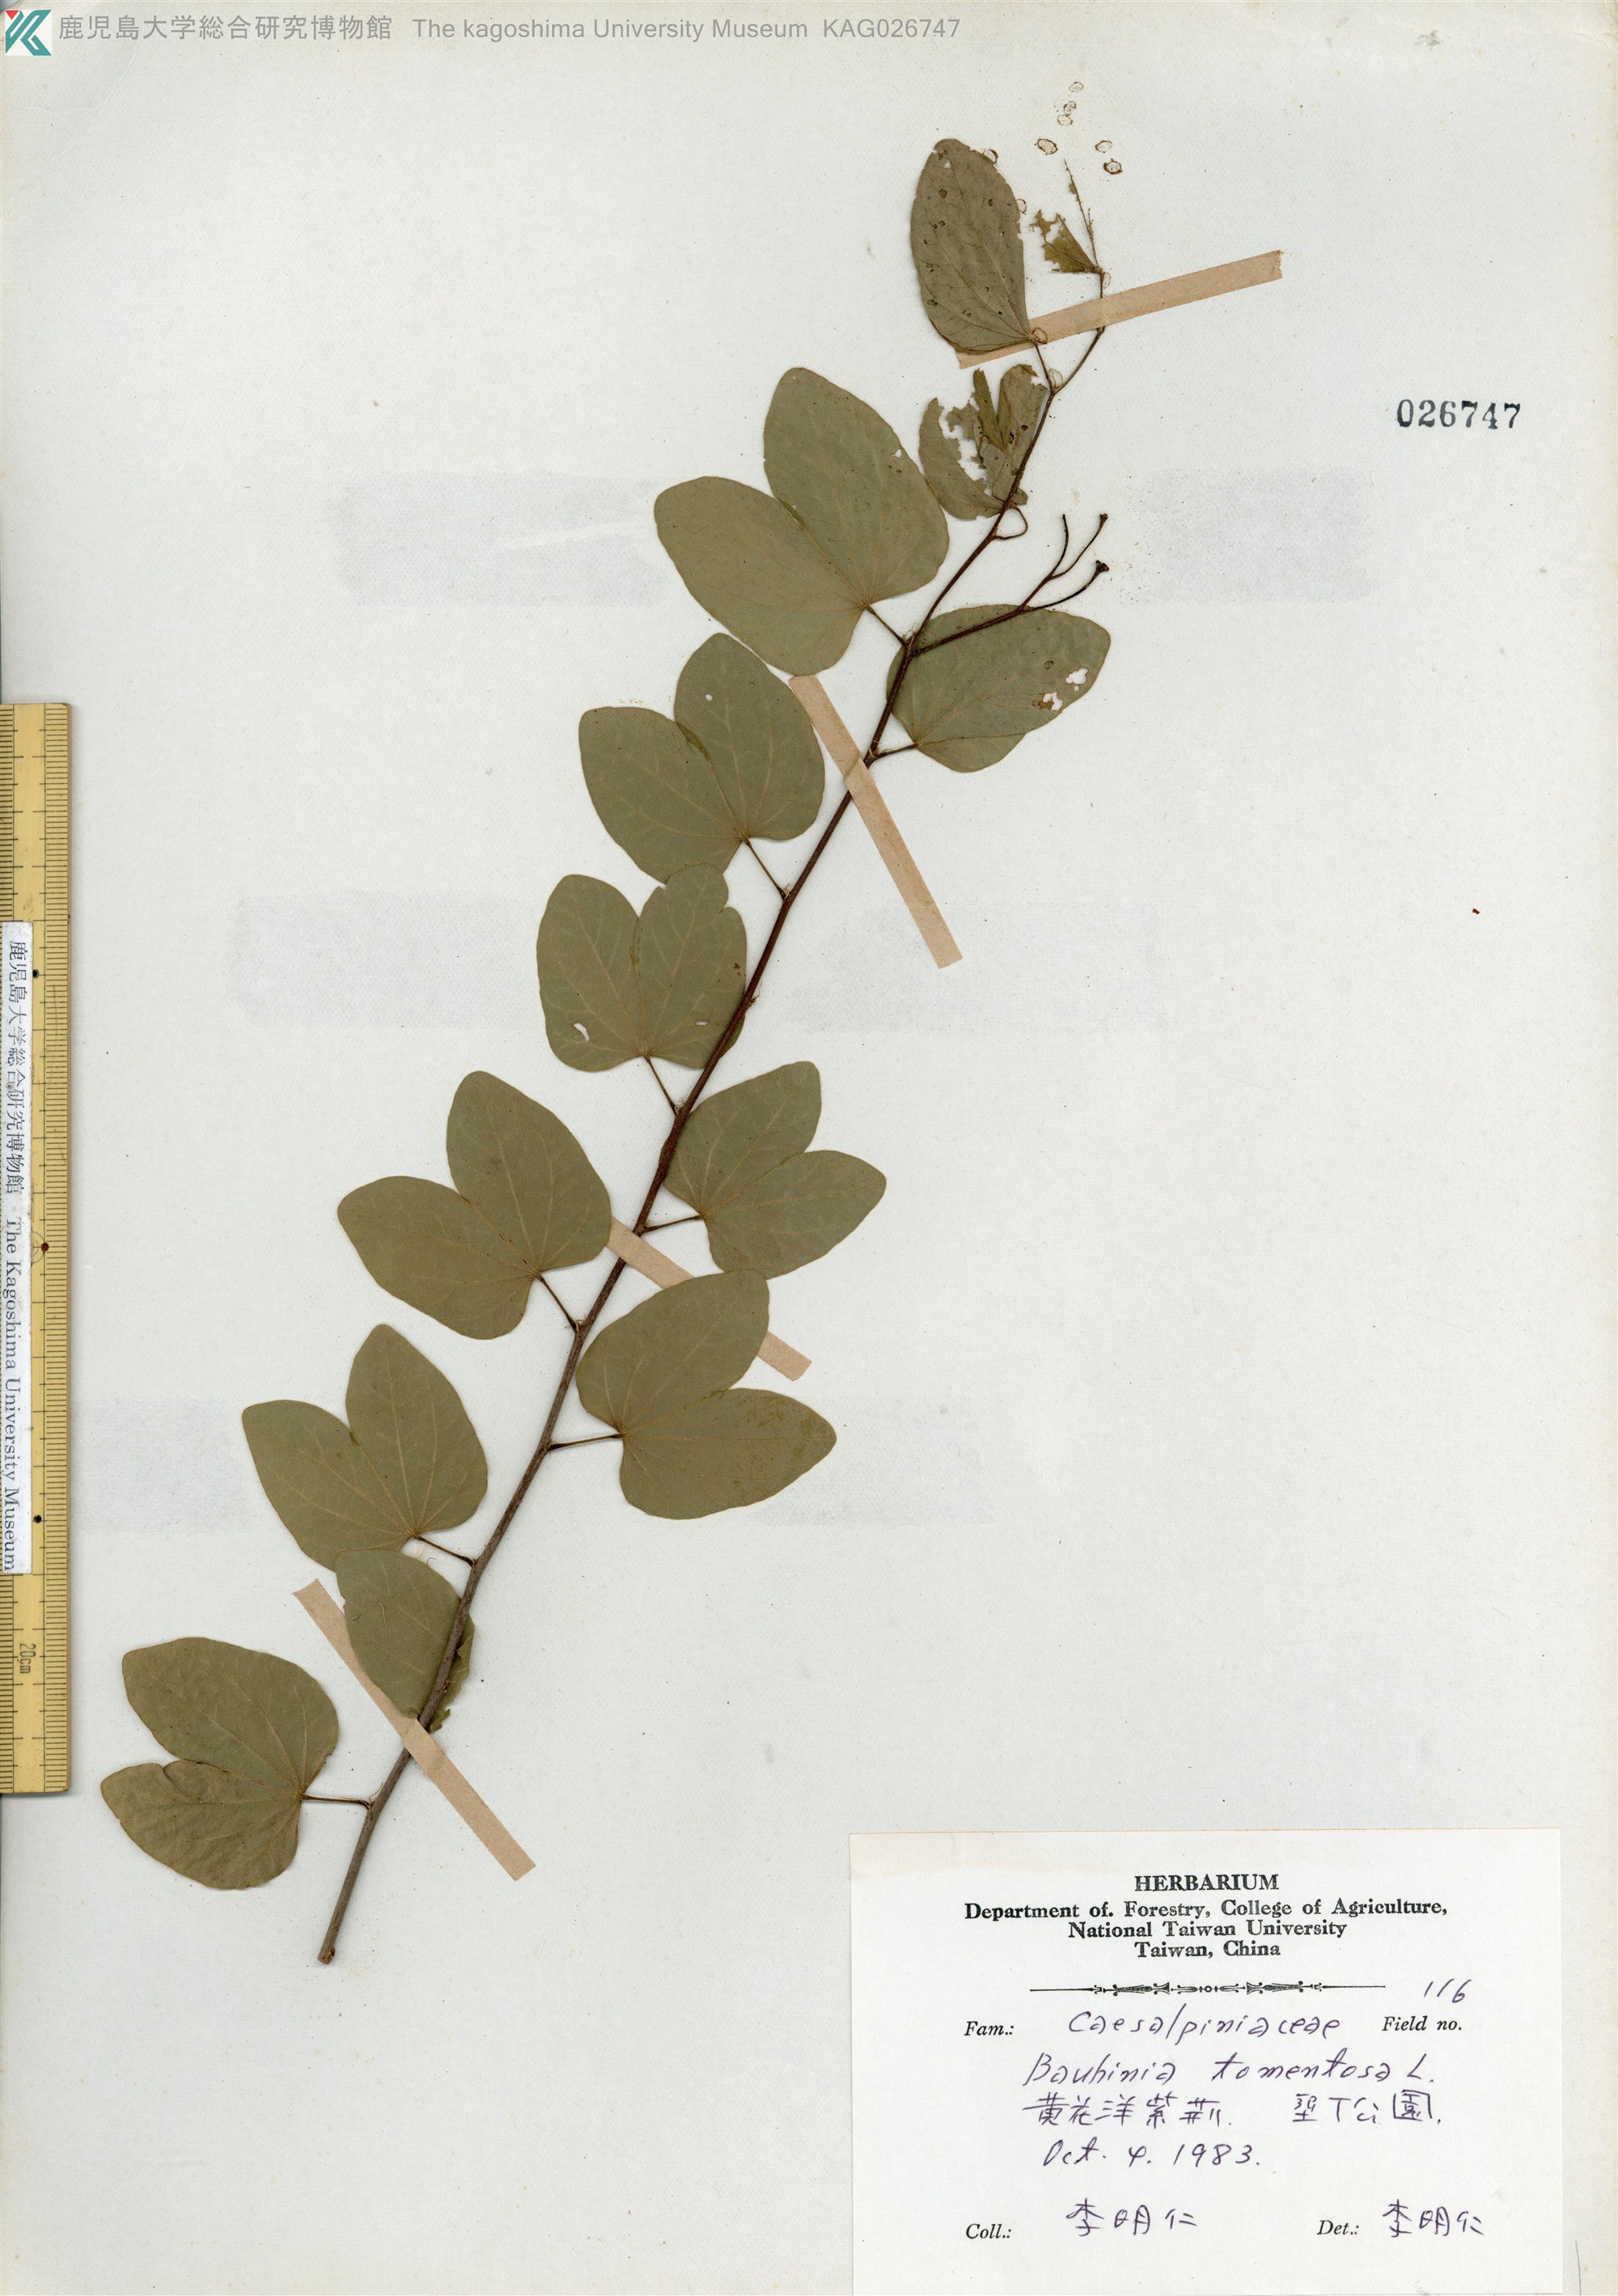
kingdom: Plantae
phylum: Tracheophyta
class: Magnoliopsida
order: Fabales
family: Fabaceae
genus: Bauhinia
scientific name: Bauhinia tomentosa
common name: Bell bauhinia
